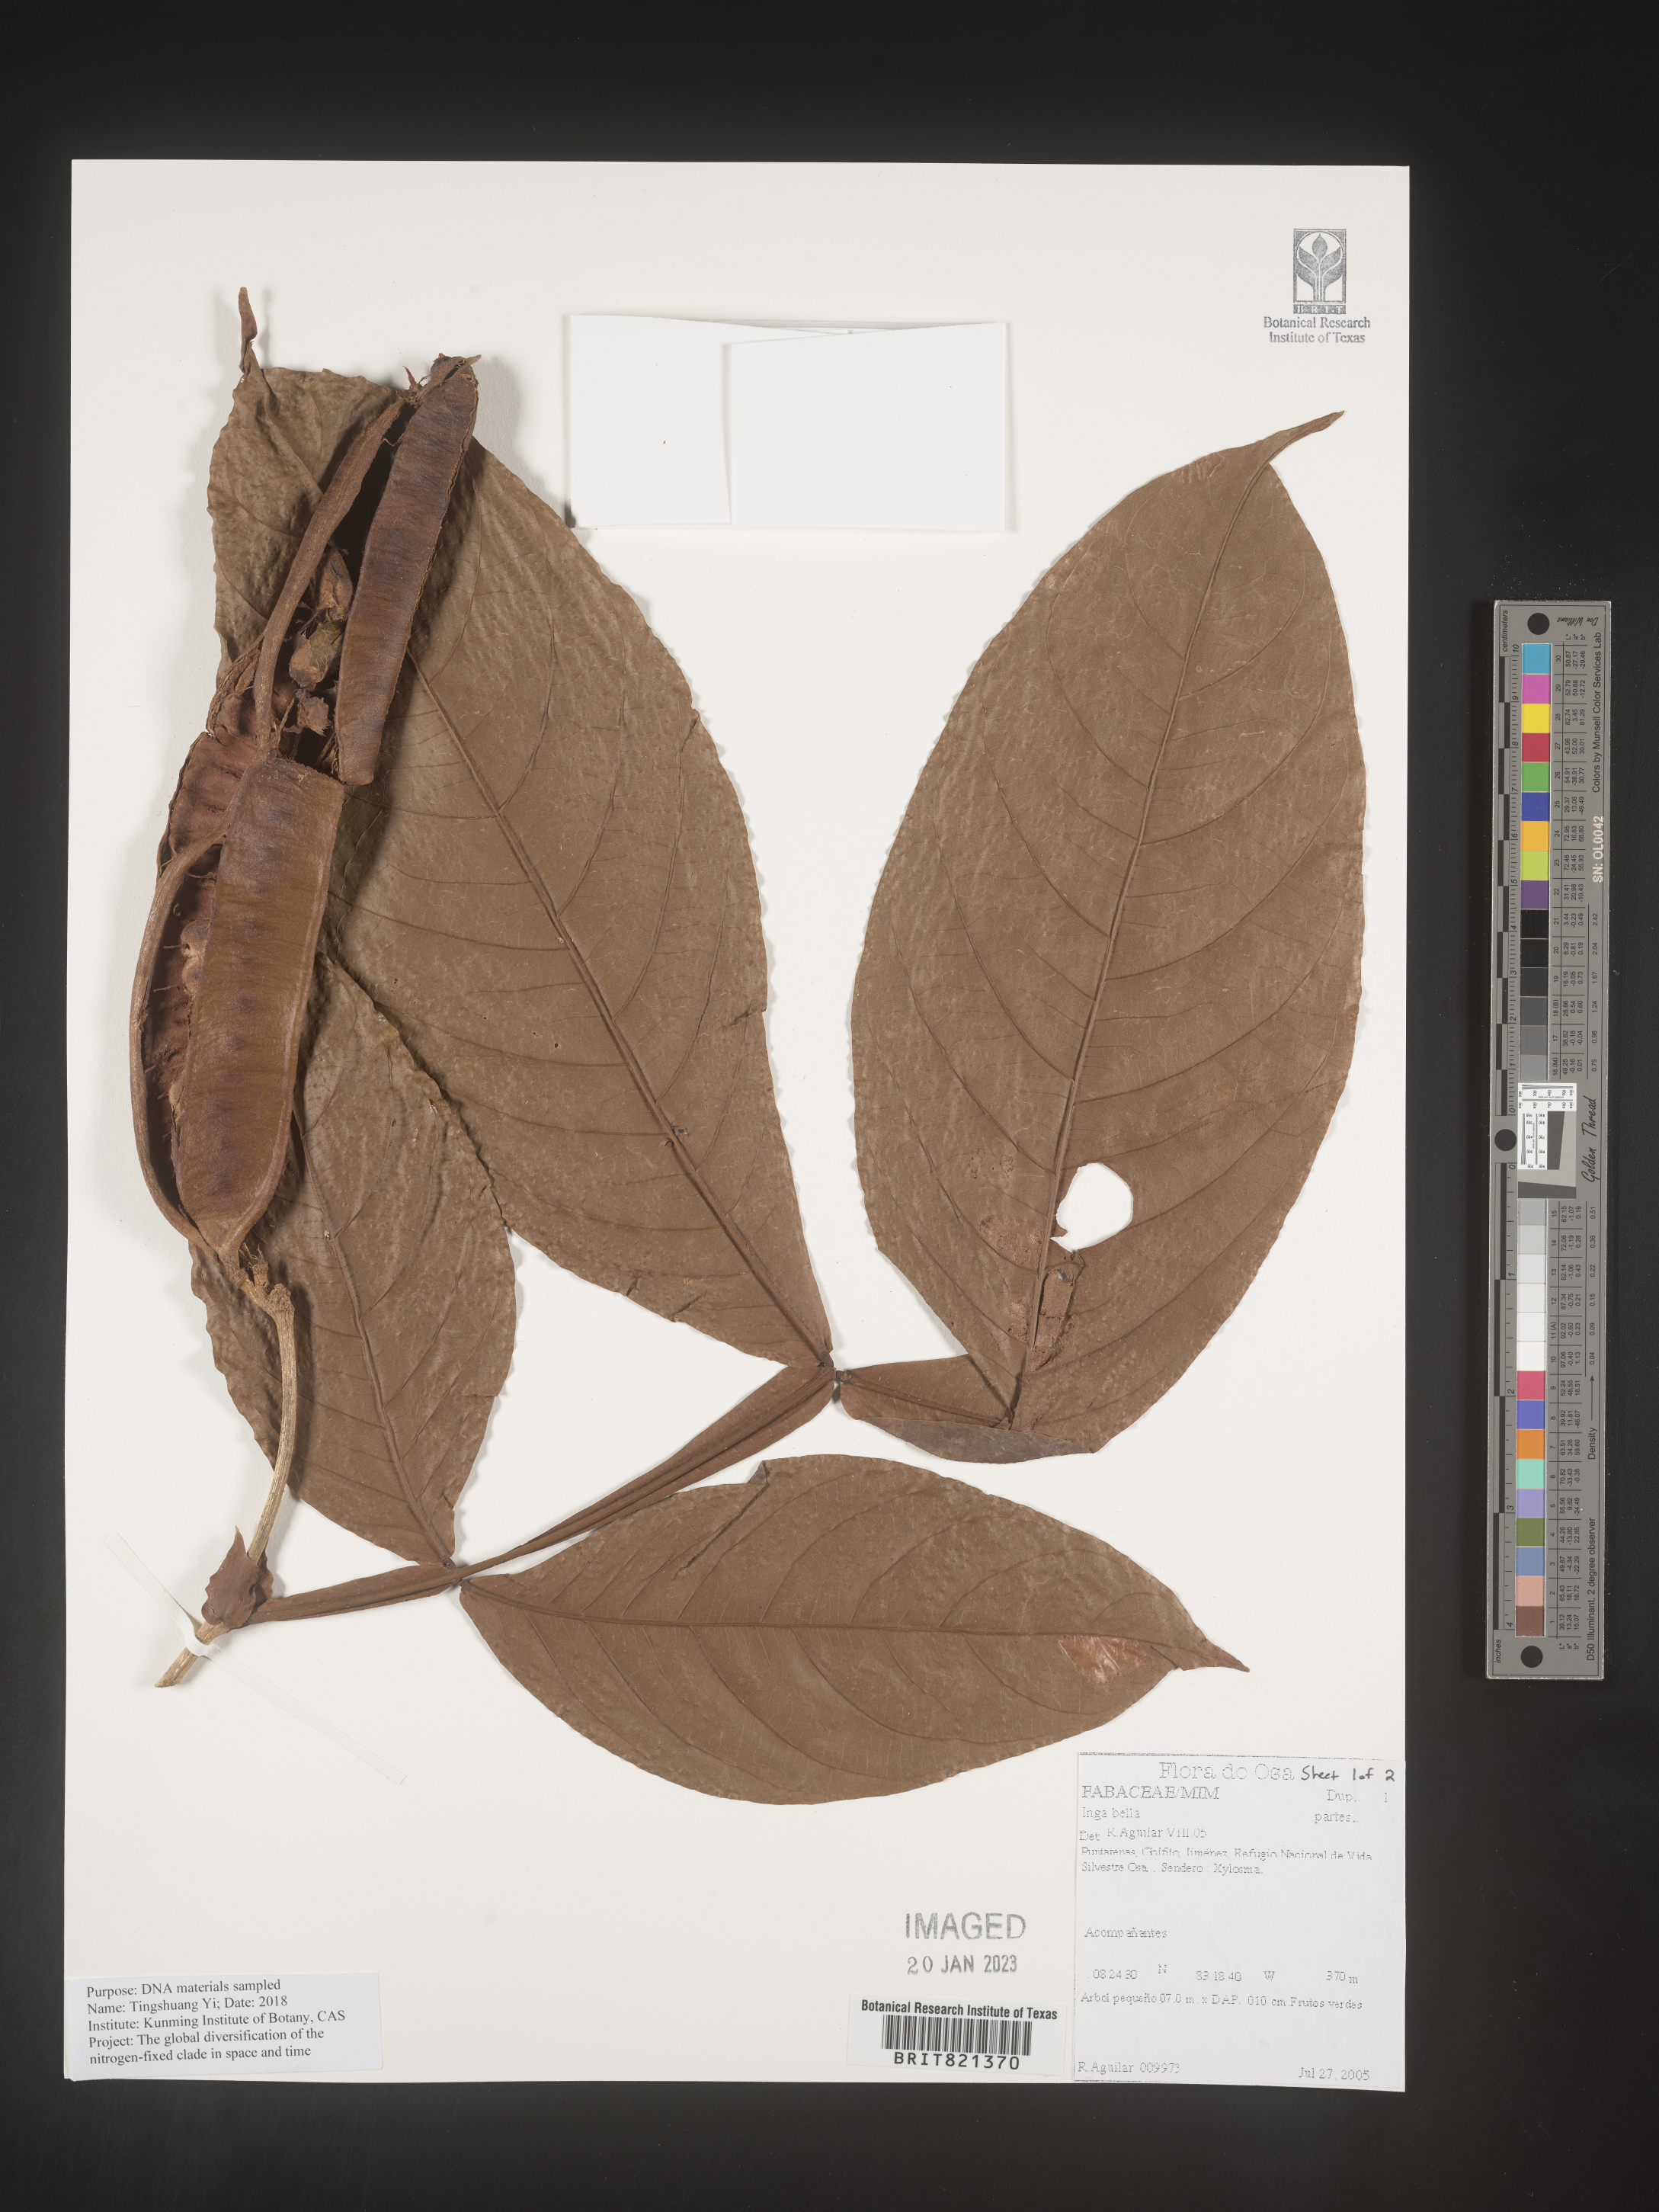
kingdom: Plantae
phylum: Tracheophyta
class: Magnoliopsida
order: Fabales
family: Fabaceae
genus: Inga
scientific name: Inga
